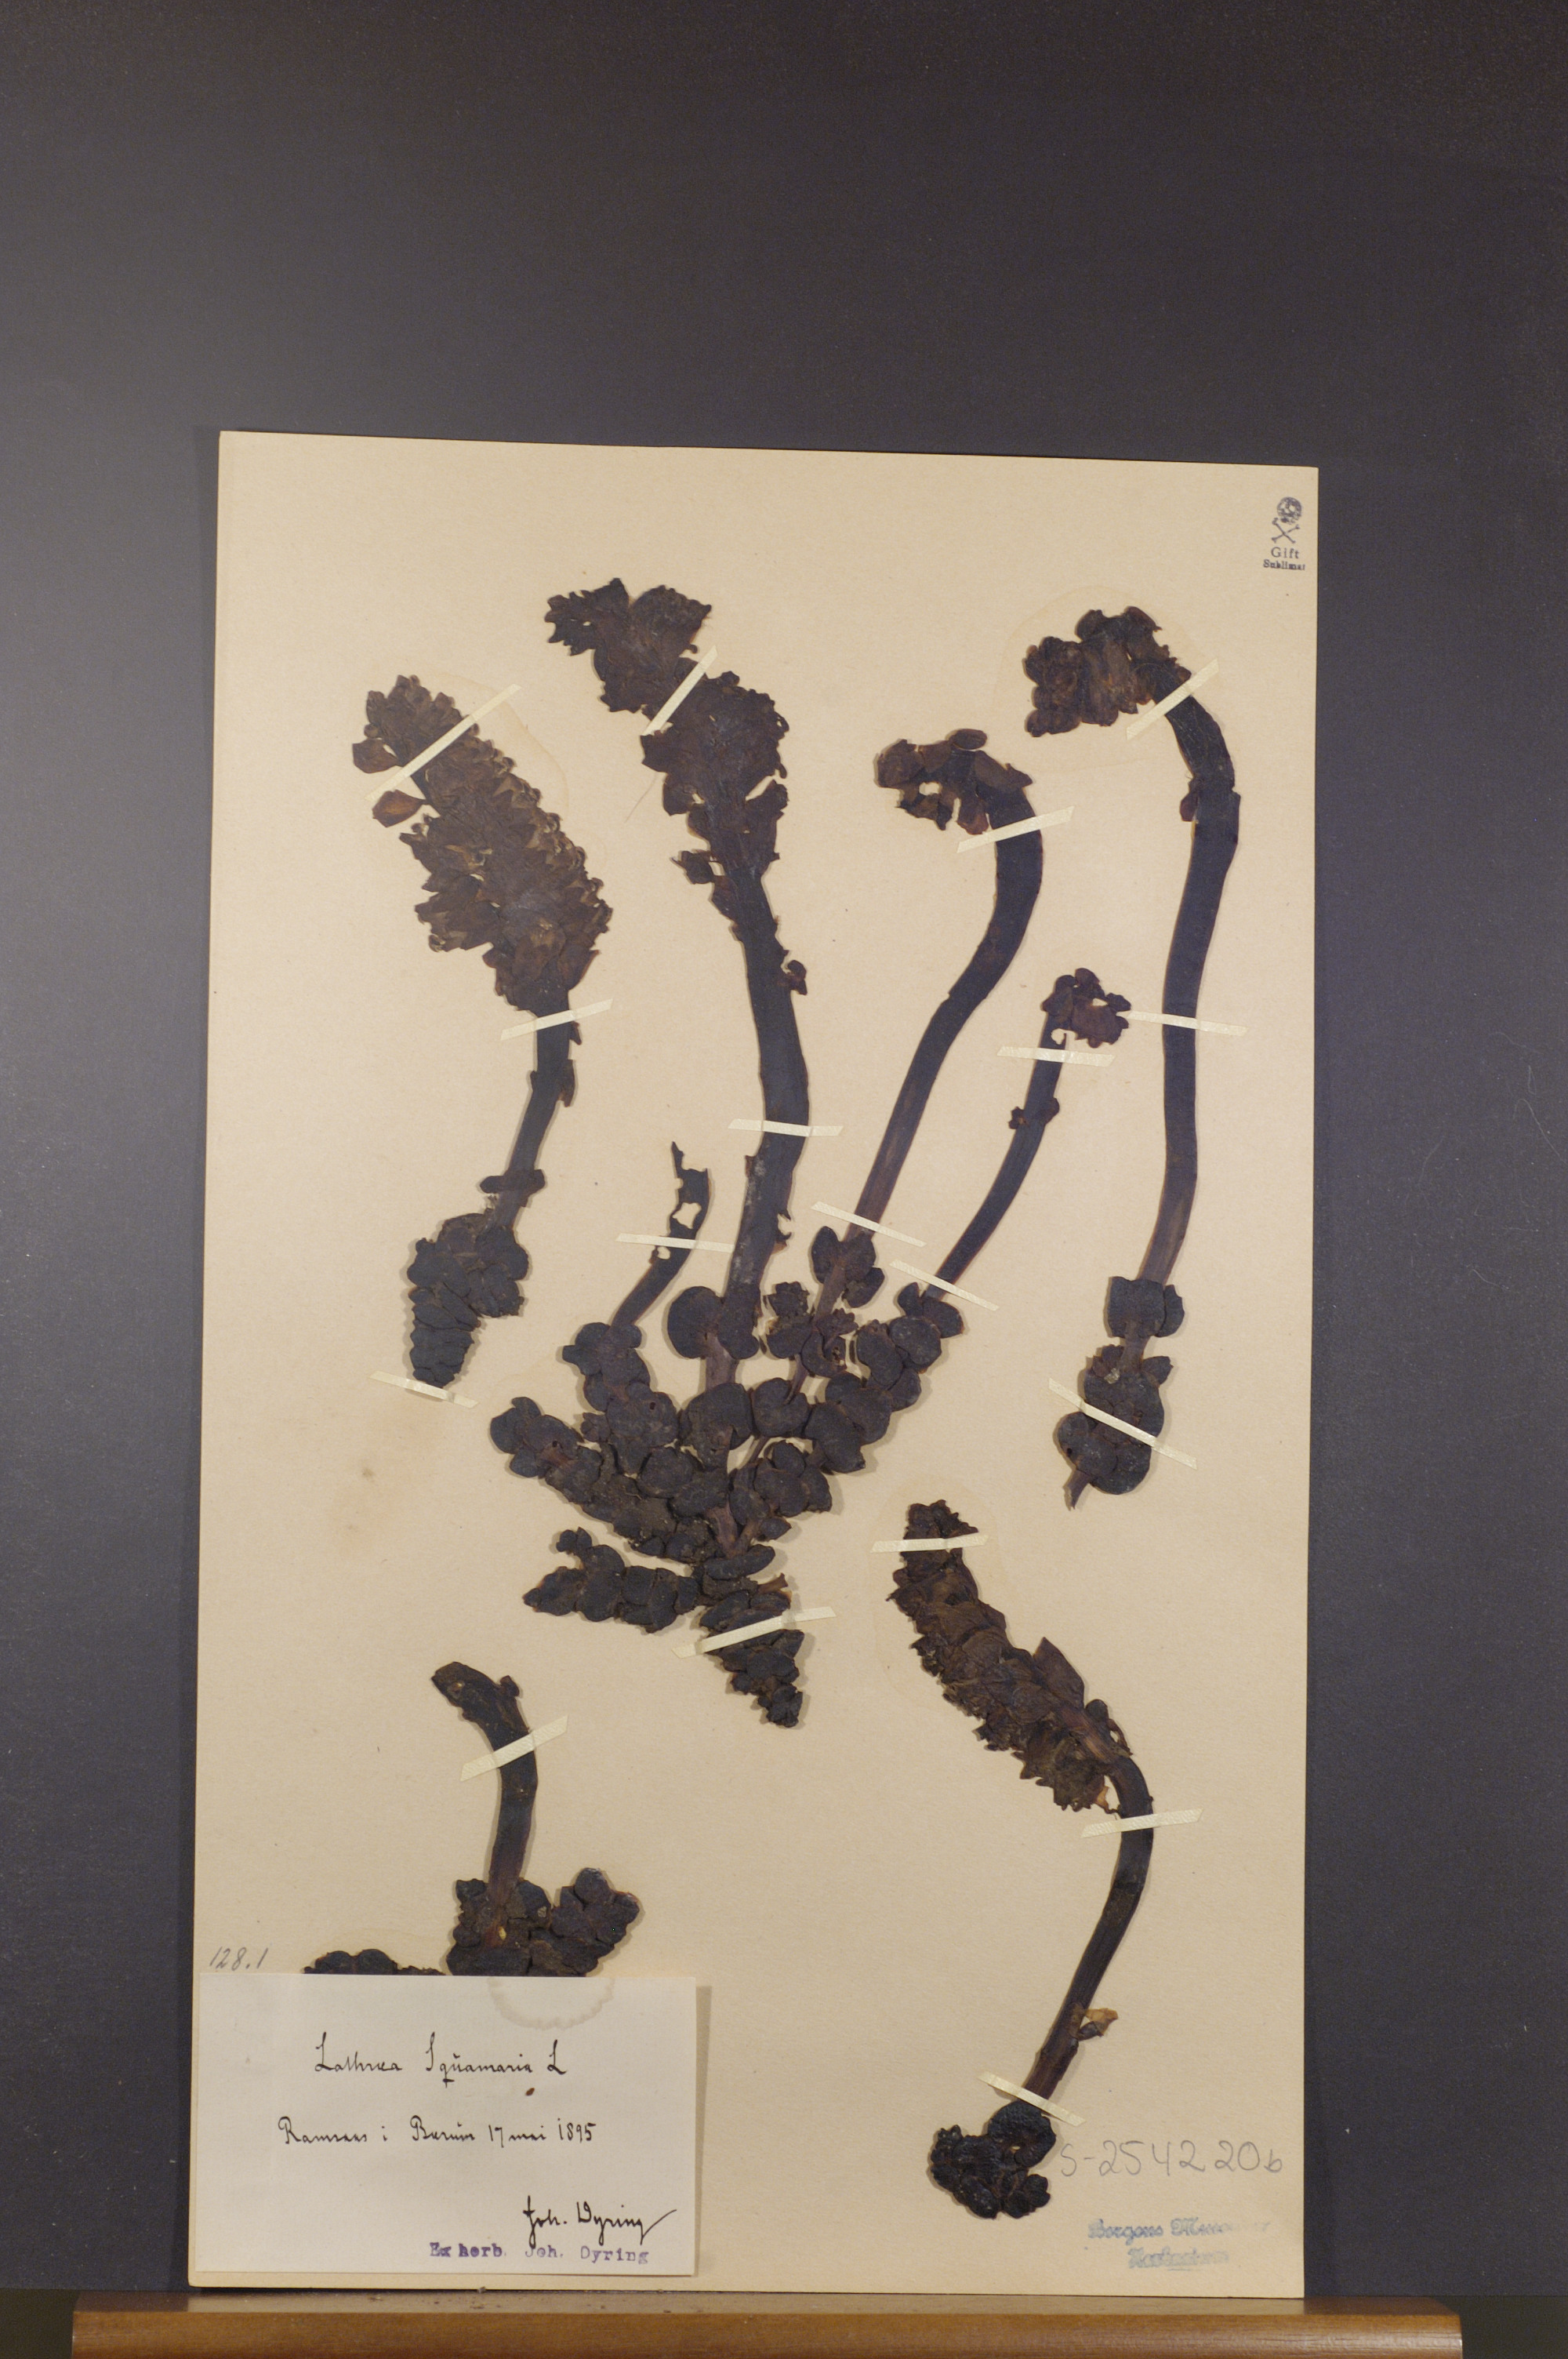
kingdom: Plantae
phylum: Tracheophyta
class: Magnoliopsida
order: Lamiales
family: Orobanchaceae
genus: Lathraea
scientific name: Lathraea squamaria
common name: Toothwort
